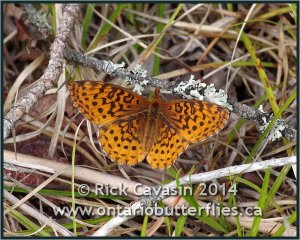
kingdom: Animalia
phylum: Arthropoda
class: Insecta
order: Lepidoptera
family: Nymphalidae
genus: Clossiana
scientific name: Clossiana toddi
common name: Meadow Fritillary
